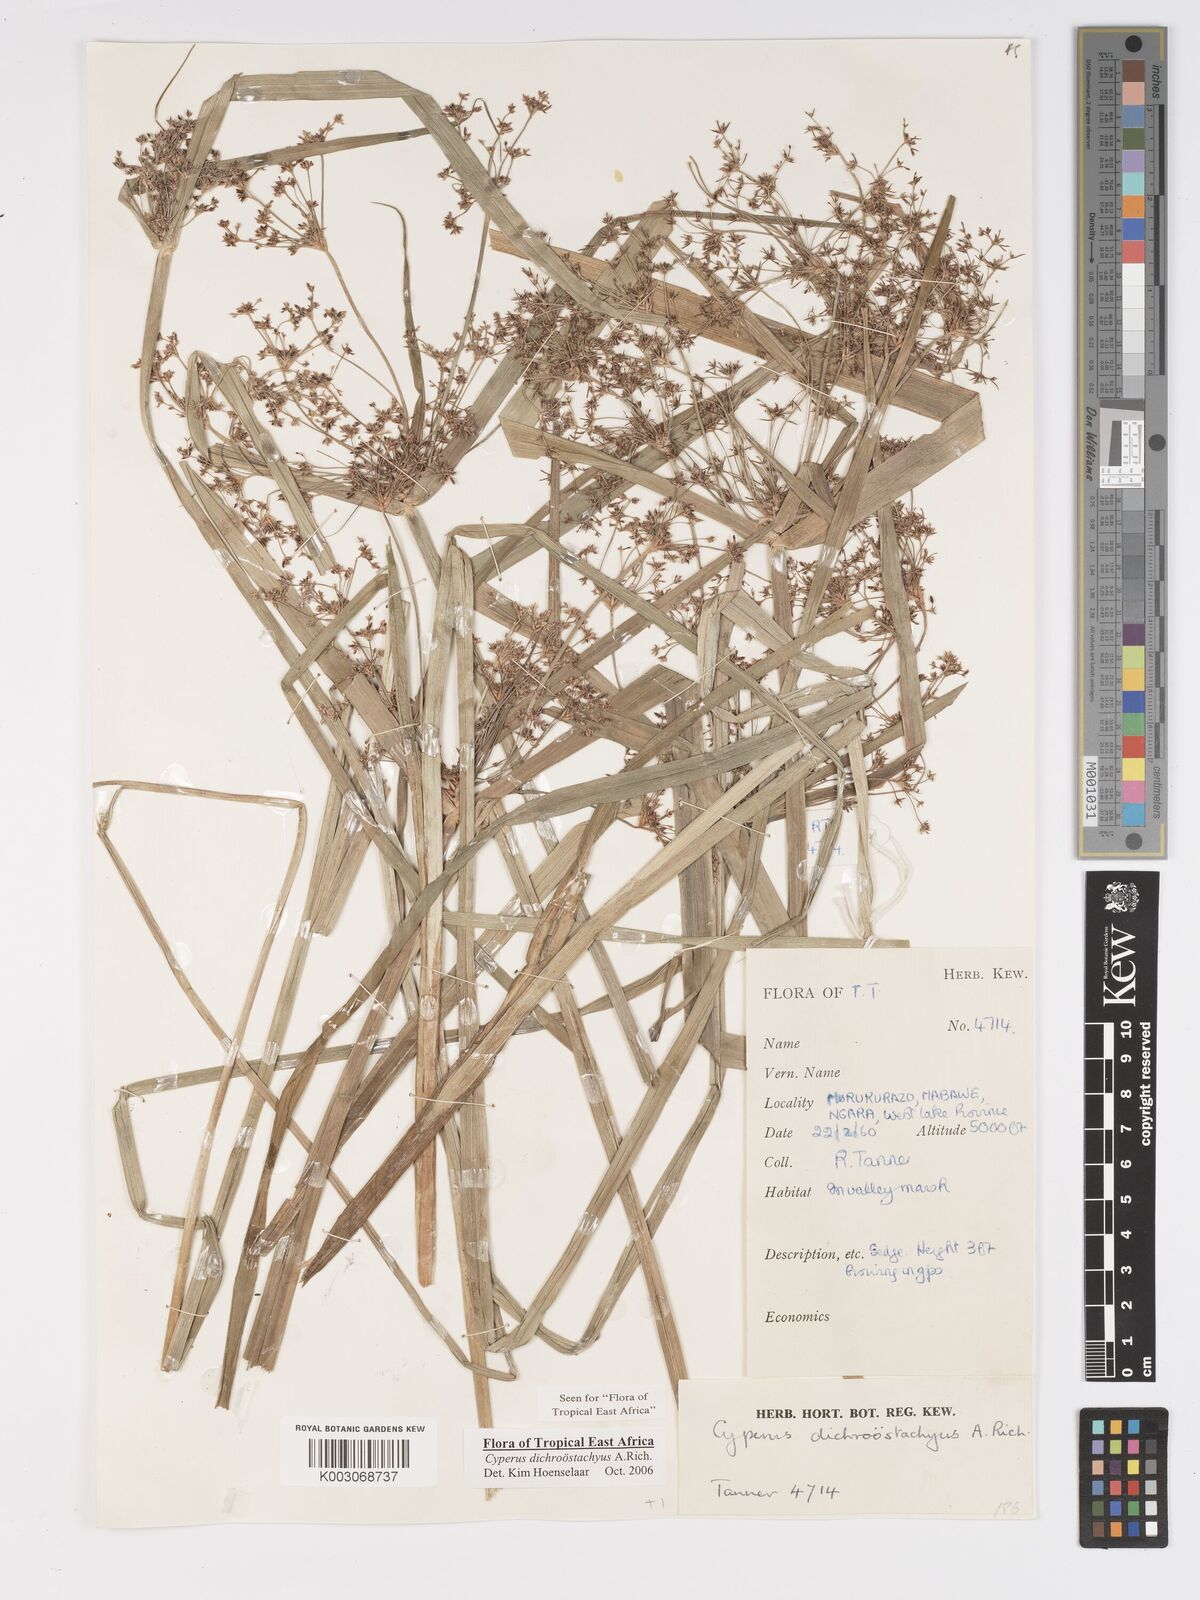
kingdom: Plantae
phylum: Tracheophyta
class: Liliopsida
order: Poales
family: Cyperaceae
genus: Cyperus
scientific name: Cyperus dichrostachyus
